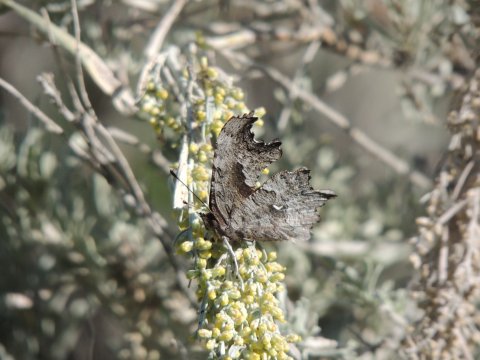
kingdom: Animalia
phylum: Arthropoda
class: Insecta
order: Lepidoptera
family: Nymphalidae
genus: Polygonia
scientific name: Polygonia gracilis
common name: Hoary Comma
